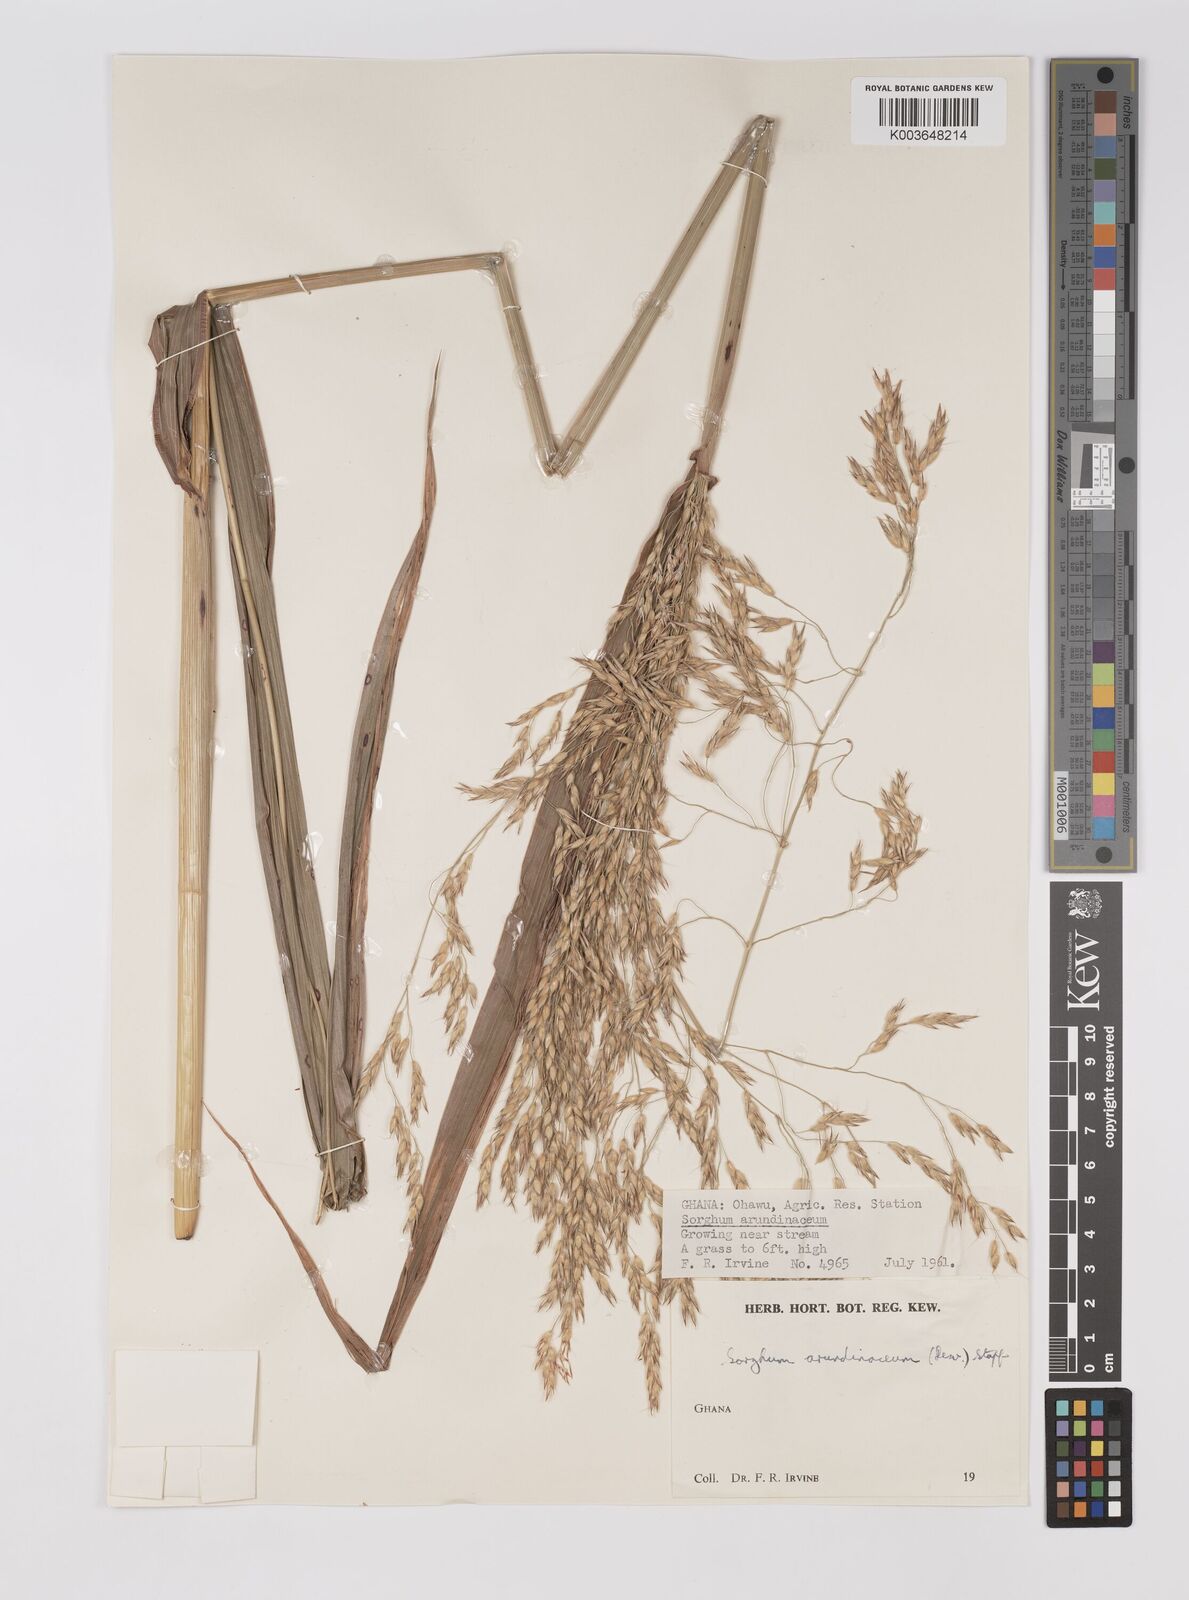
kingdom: Plantae
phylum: Tracheophyta
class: Liliopsida
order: Poales
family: Poaceae
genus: Sorghum
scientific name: Sorghum arundinaceum
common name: Sorghum
